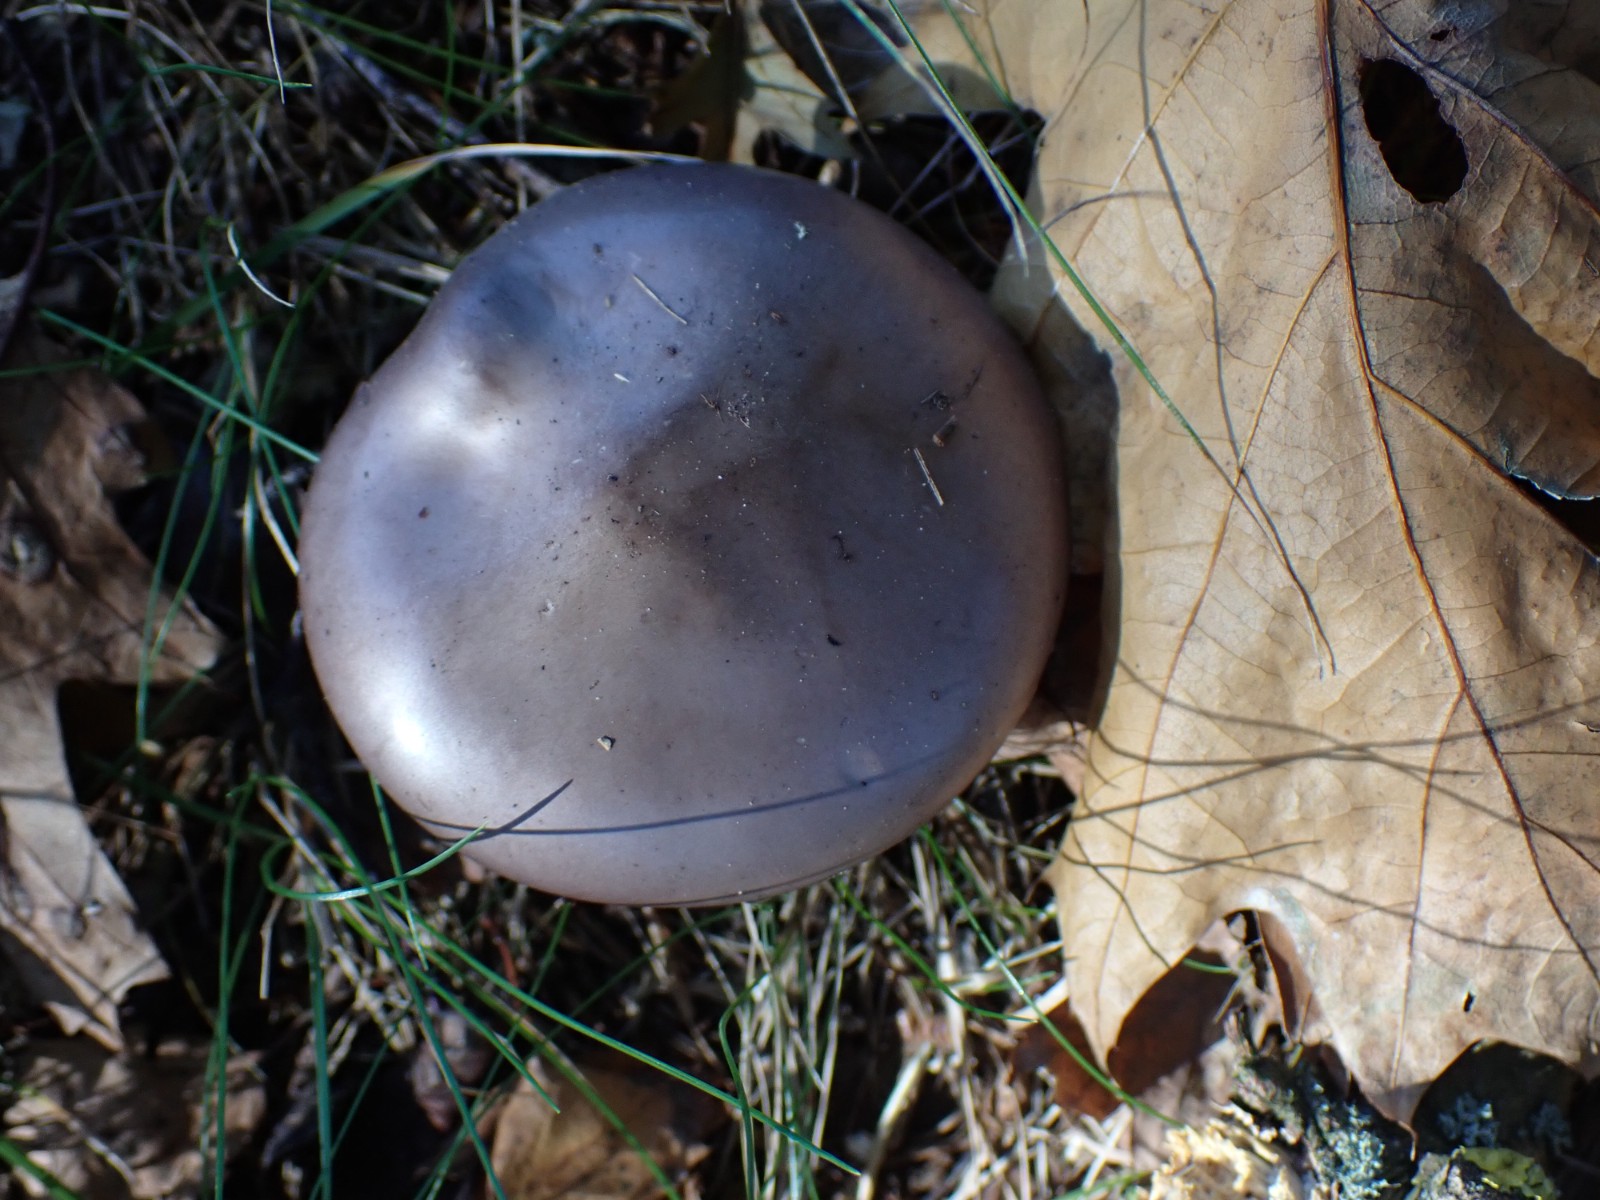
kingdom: Fungi
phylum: Basidiomycota
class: Agaricomycetes
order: Agaricales
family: Tricholomataceae
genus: Lepista
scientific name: Lepista nuda
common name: violet hekseringshat
